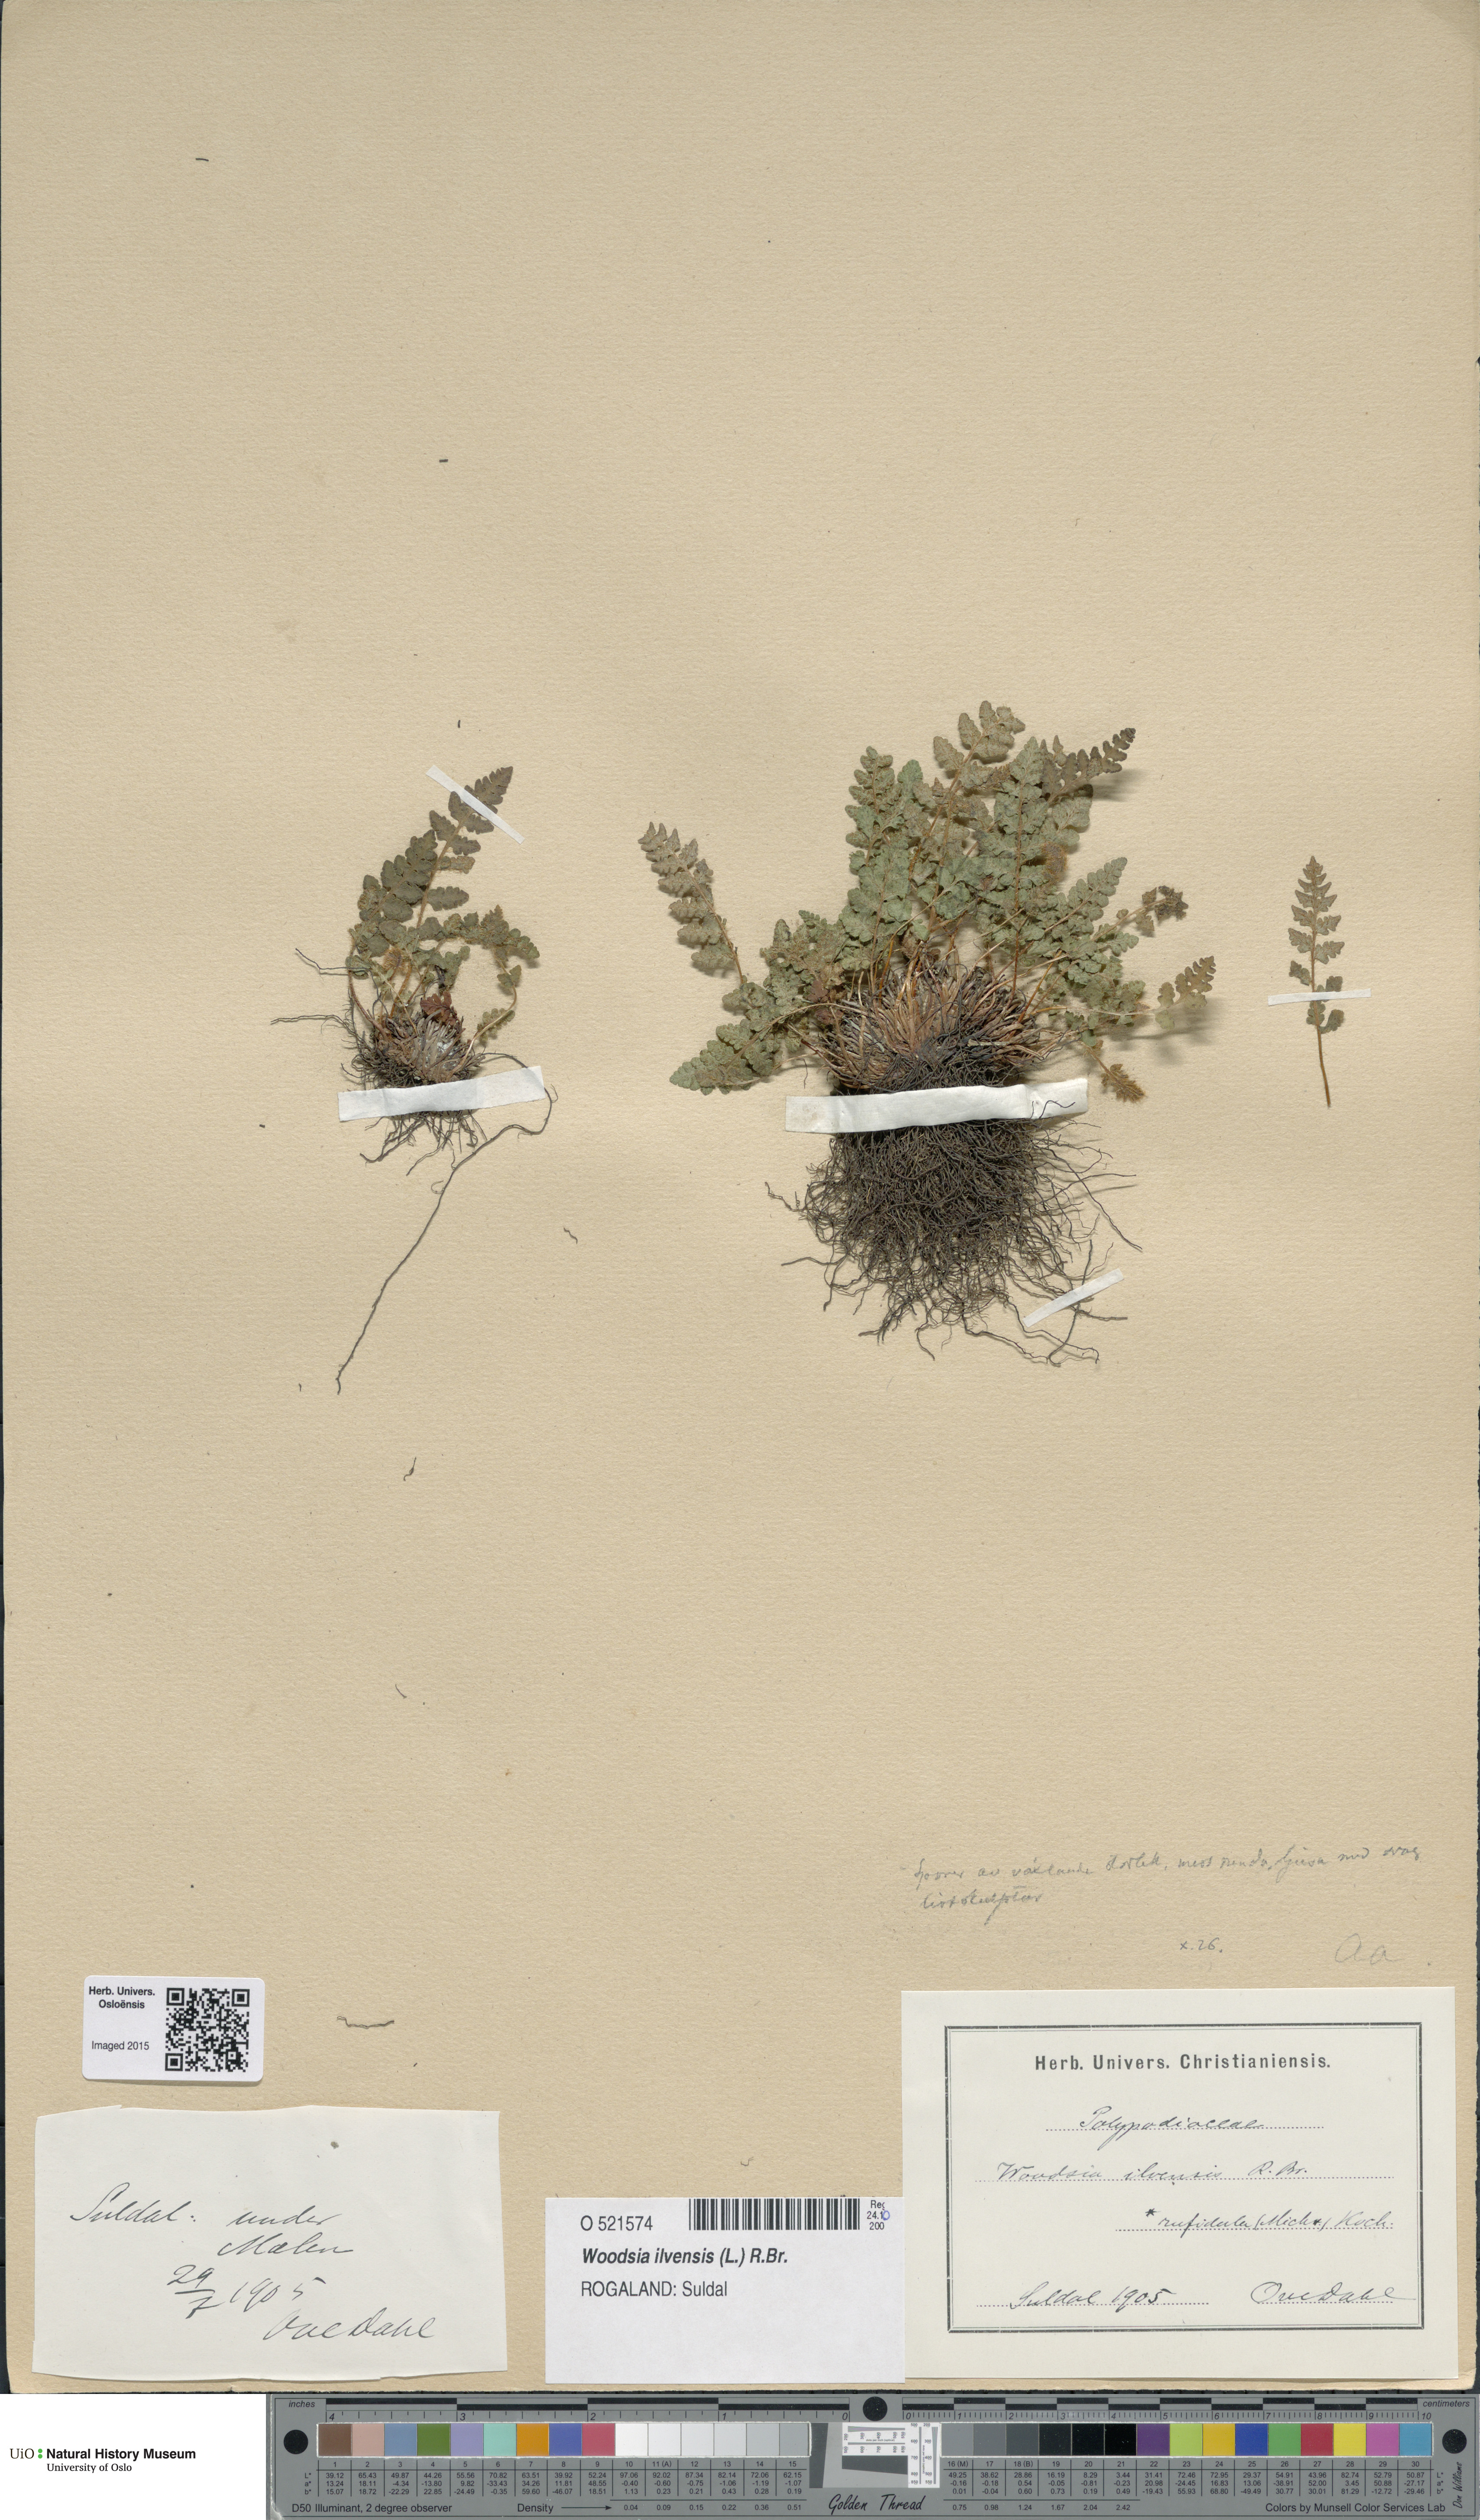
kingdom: Plantae
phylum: Tracheophyta
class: Polypodiopsida
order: Polypodiales
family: Woodsiaceae
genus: Woodsia
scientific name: Woodsia ilvensis
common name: Fragrant woodsia
